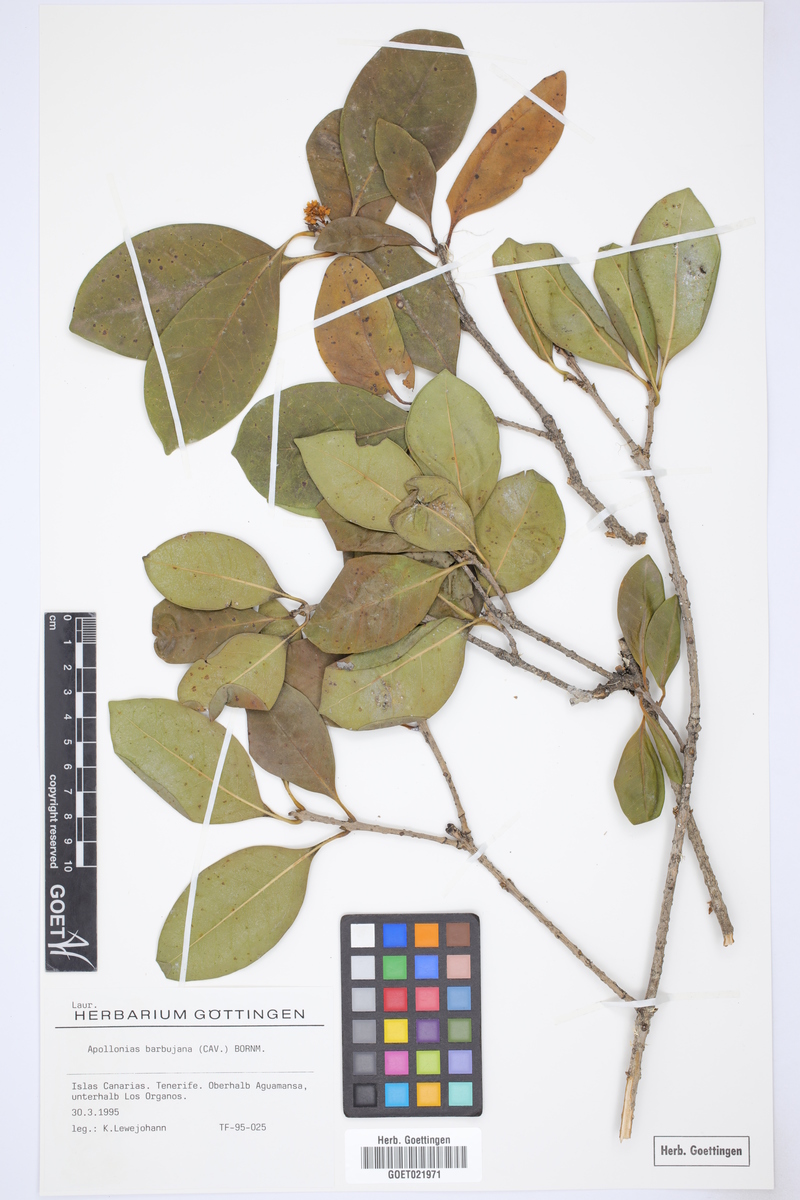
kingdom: Plantae
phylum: Tracheophyta
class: Magnoliopsida
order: Laurales
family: Lauraceae
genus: Apollonias
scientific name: Apollonias barbujana
